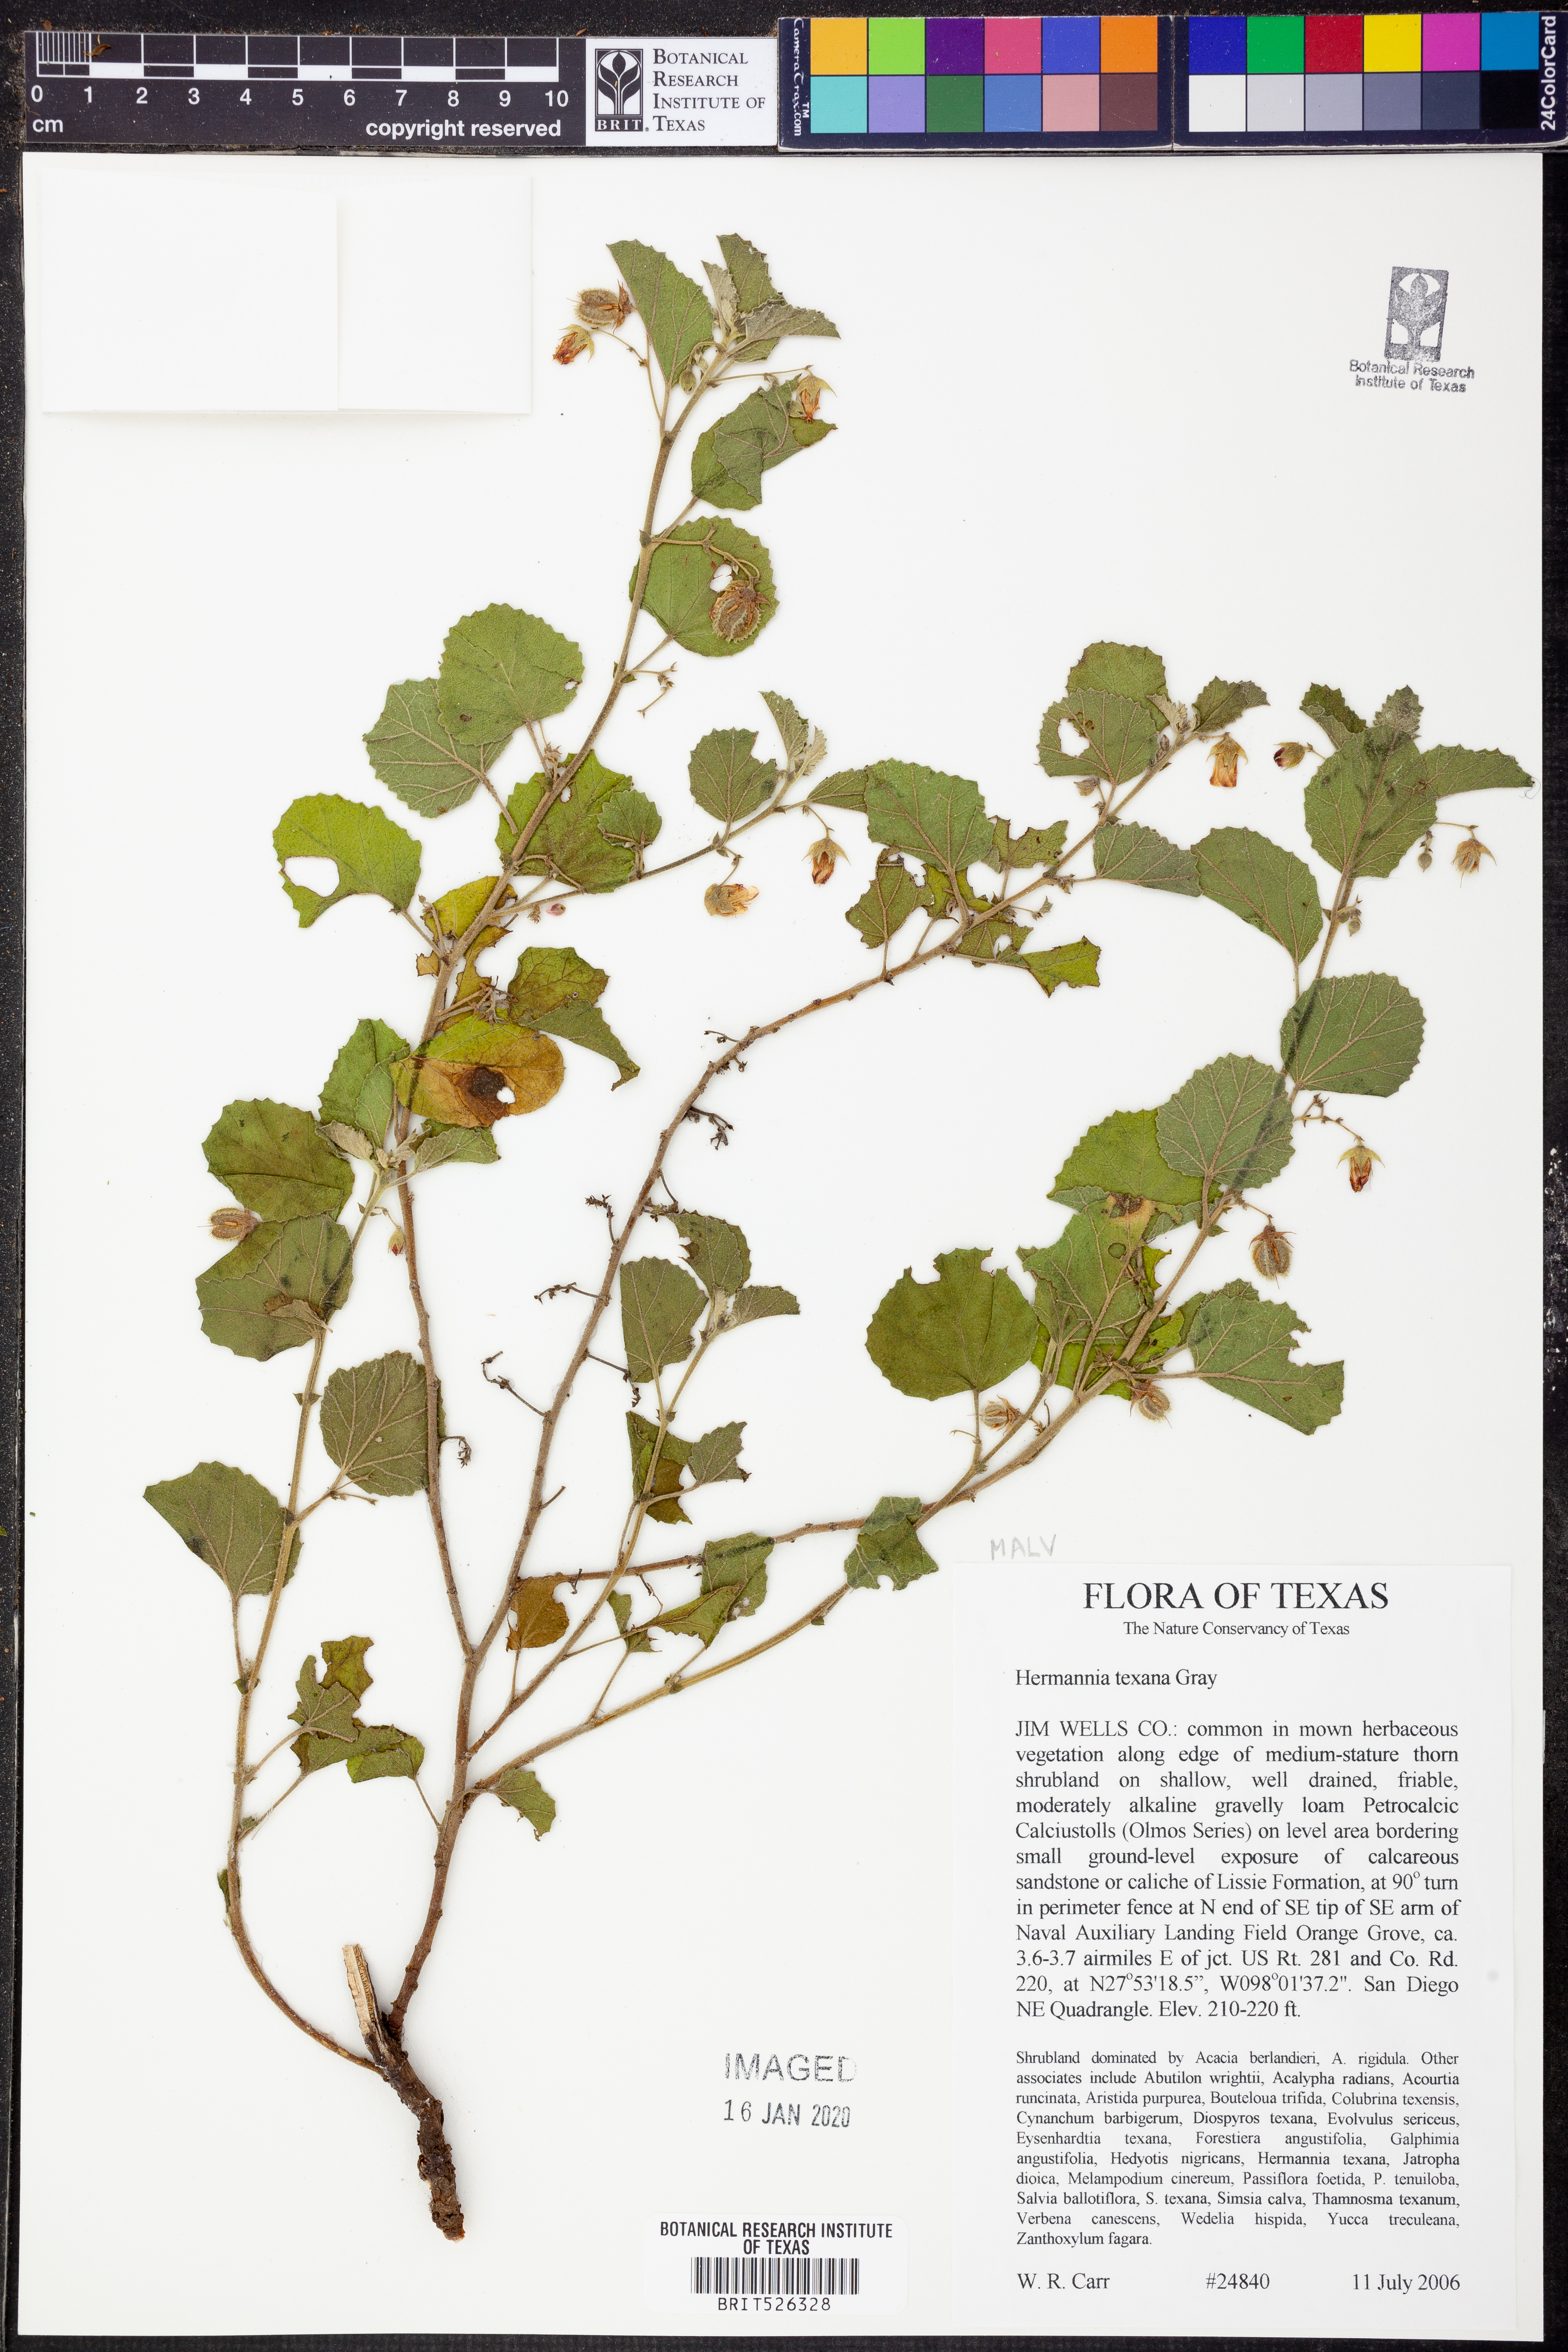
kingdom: Plantae
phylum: Tracheophyta
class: Magnoliopsida
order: Malvales
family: Malvaceae
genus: Hermannia
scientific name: Hermannia texana
